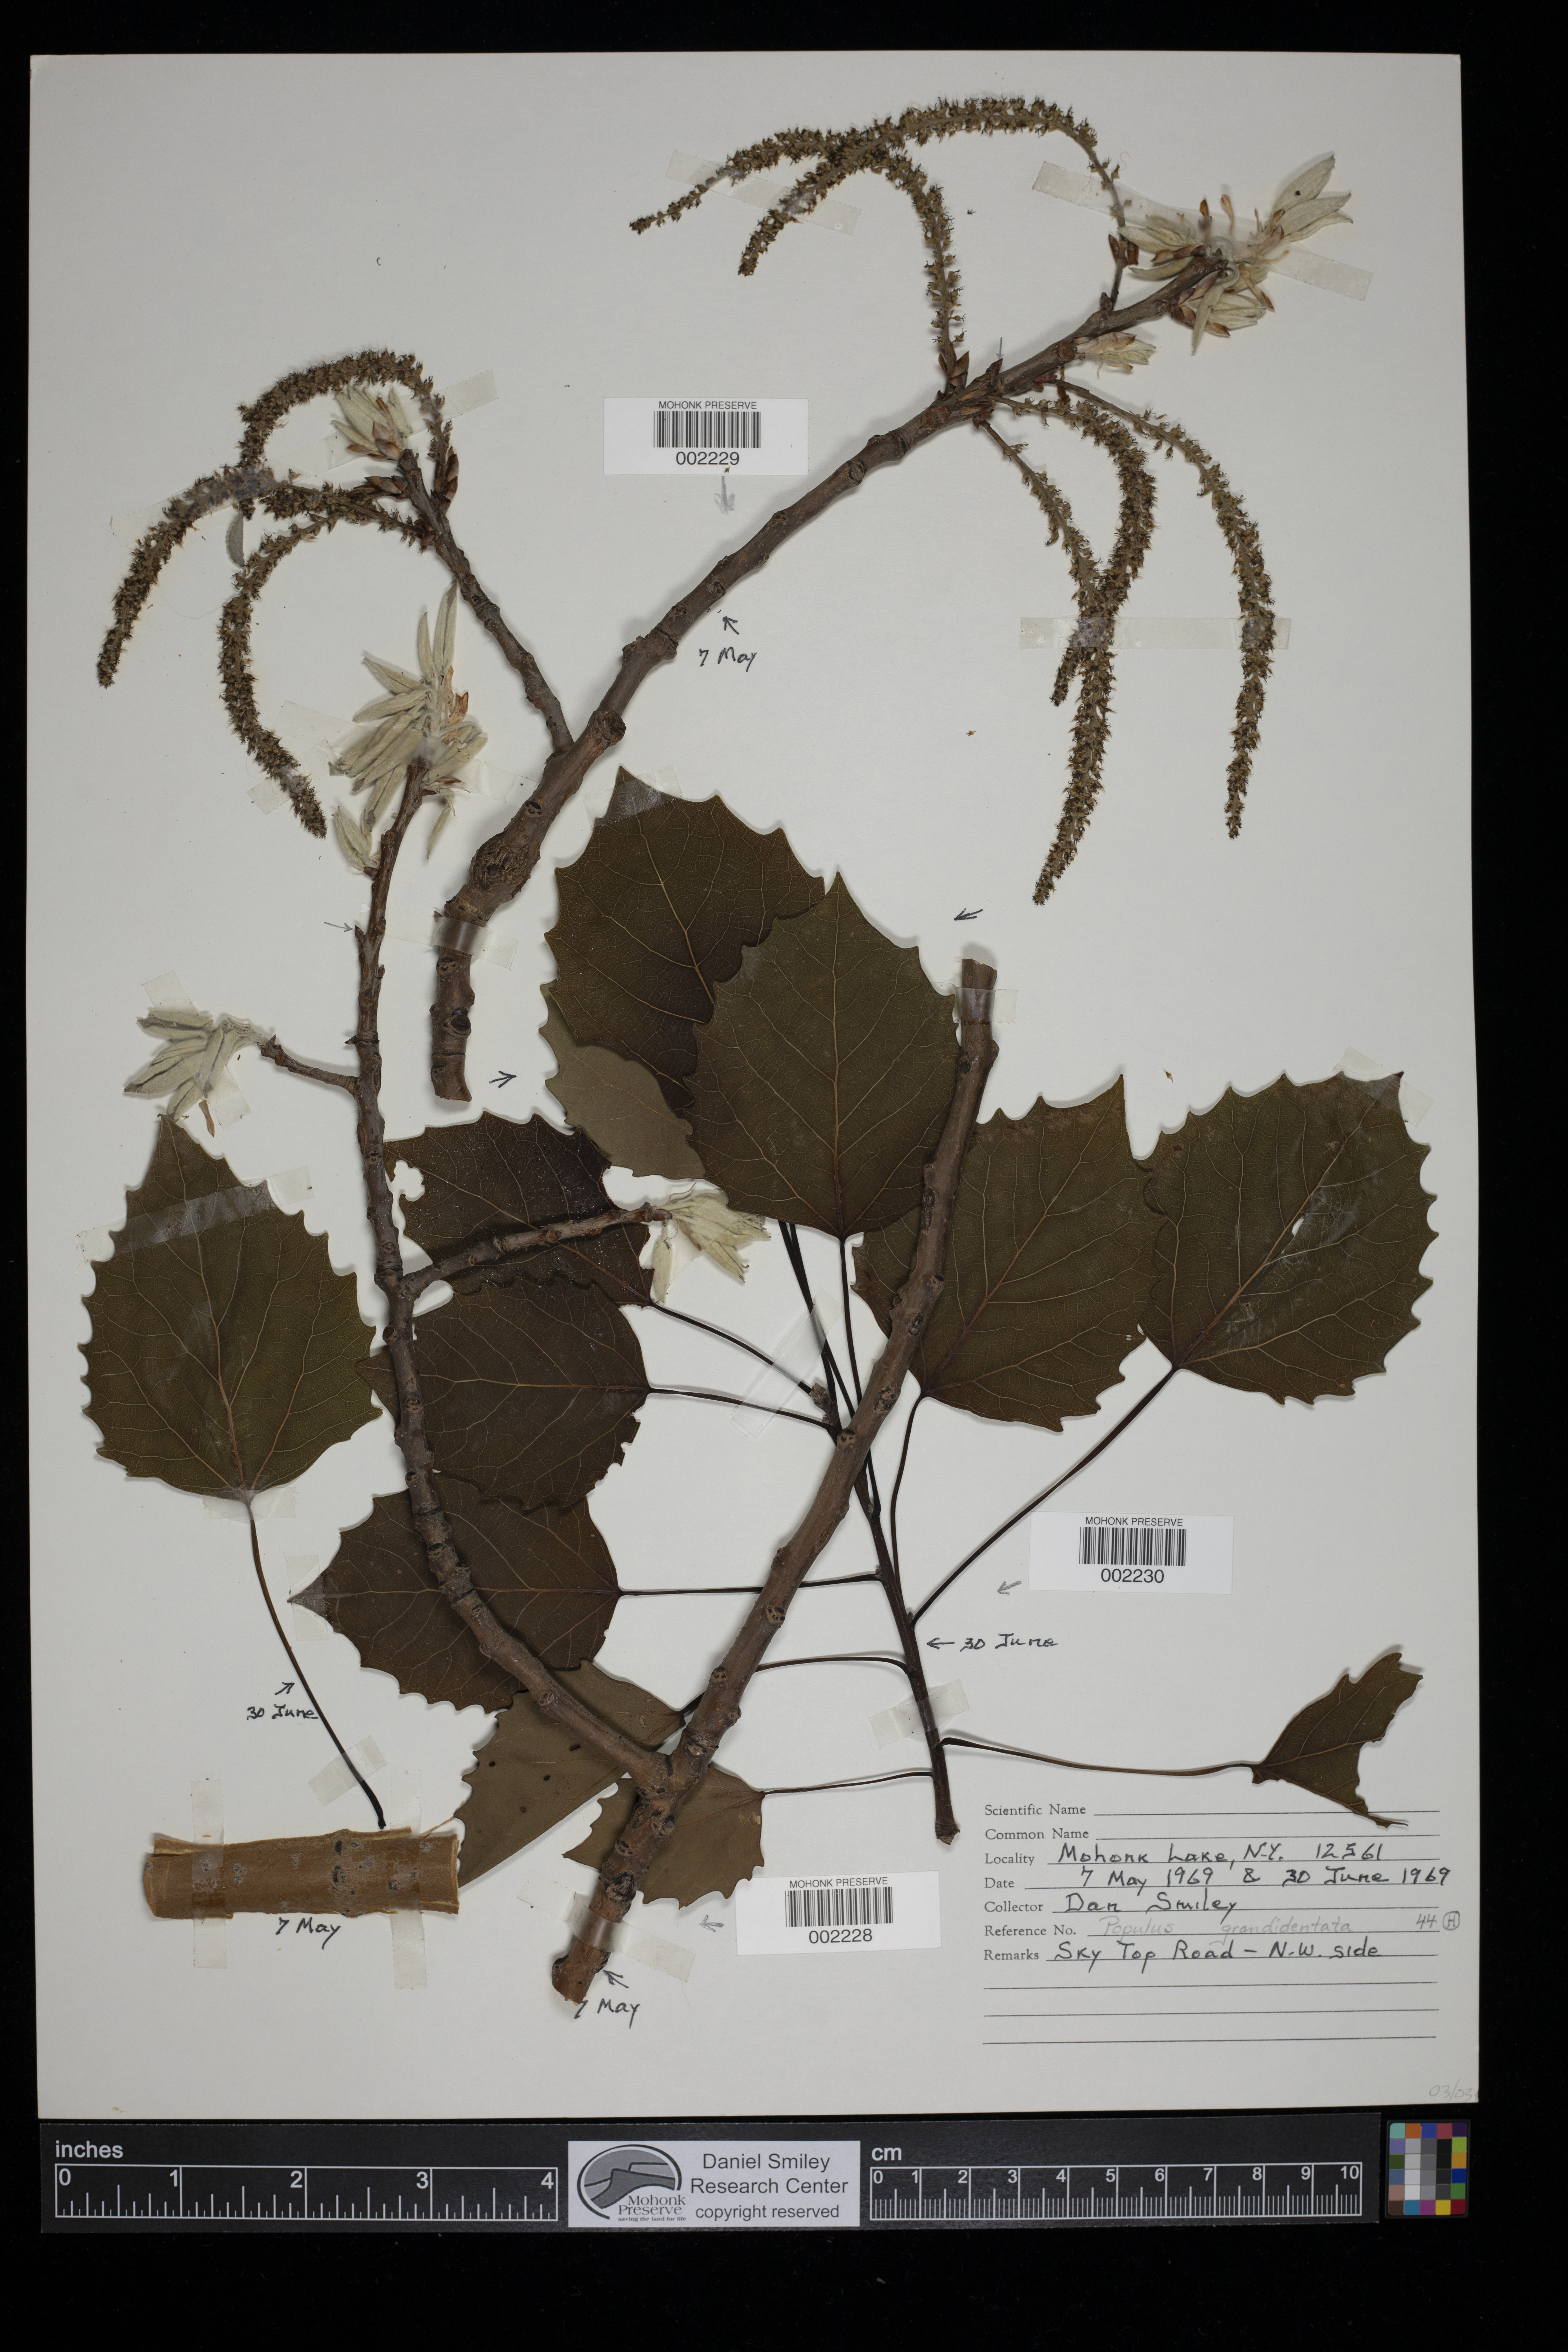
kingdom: Plantae
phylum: Tracheophyta
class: Magnoliopsida
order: Malpighiales
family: Salicaceae
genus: Populus
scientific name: Populus grandidentata
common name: Bigtooth aspen
